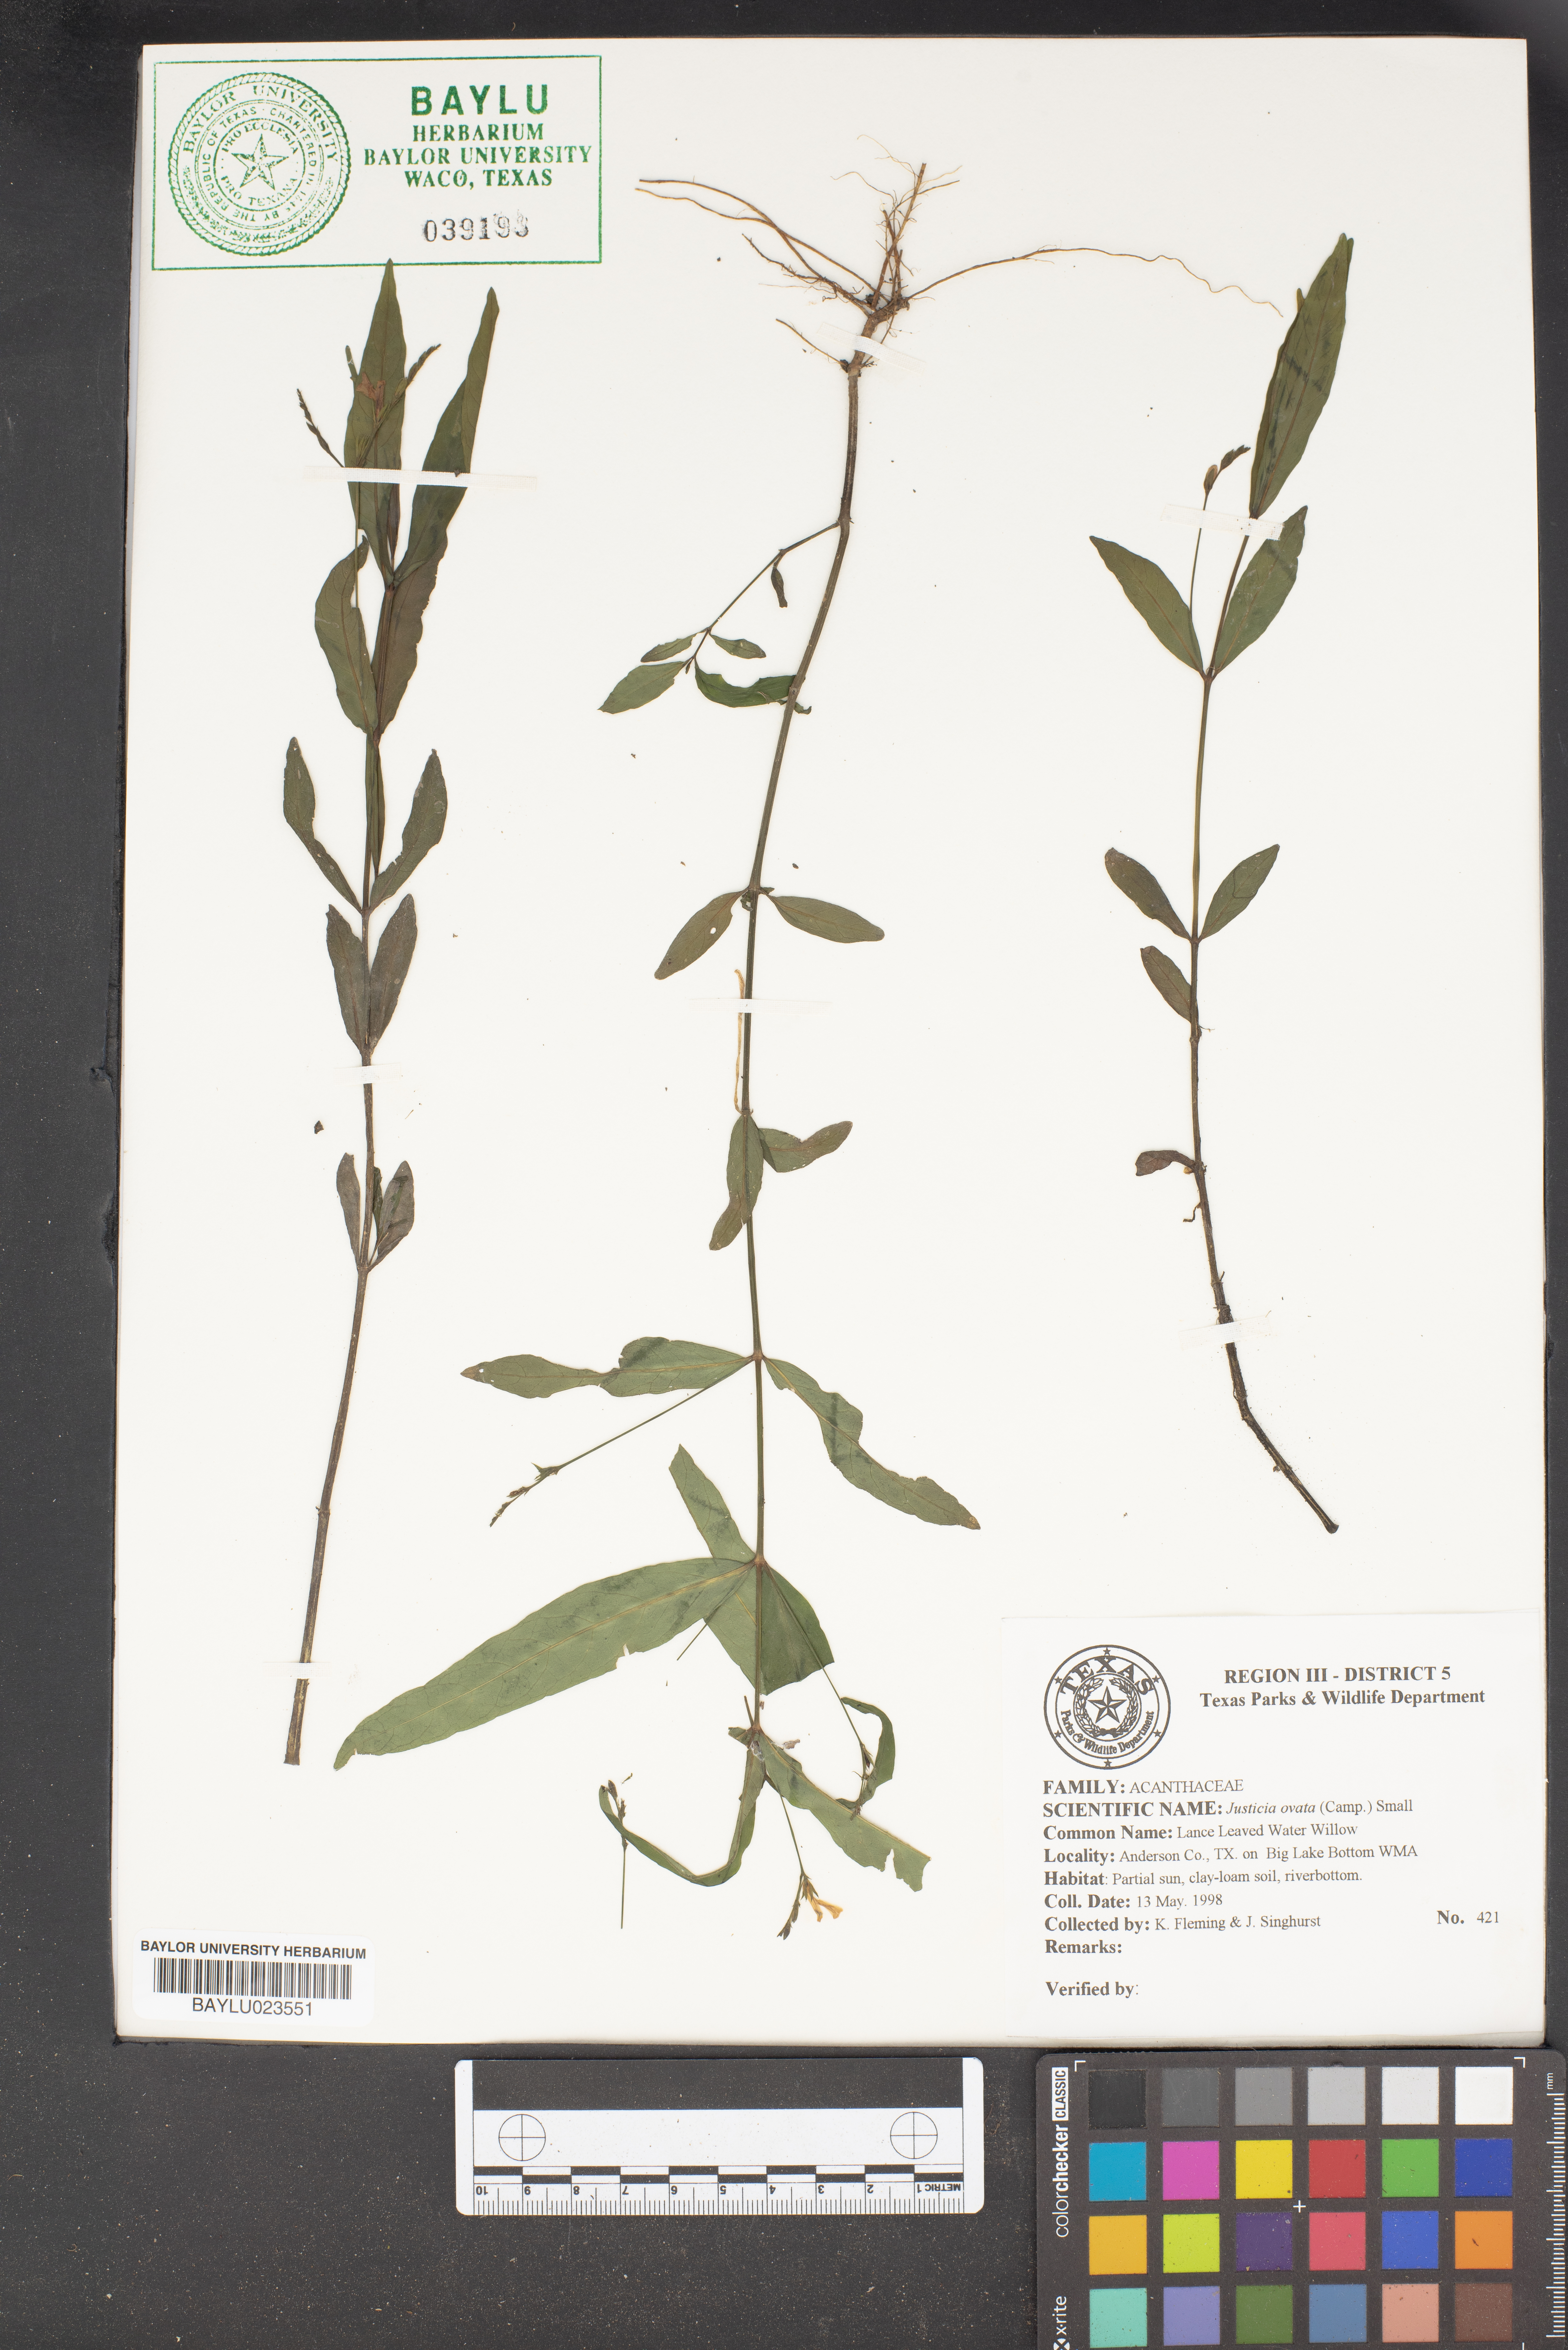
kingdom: Plantae
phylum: Tracheophyta
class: Magnoliopsida
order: Lamiales
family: Acanthaceae
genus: Dianthera
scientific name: Dianthera ovata
